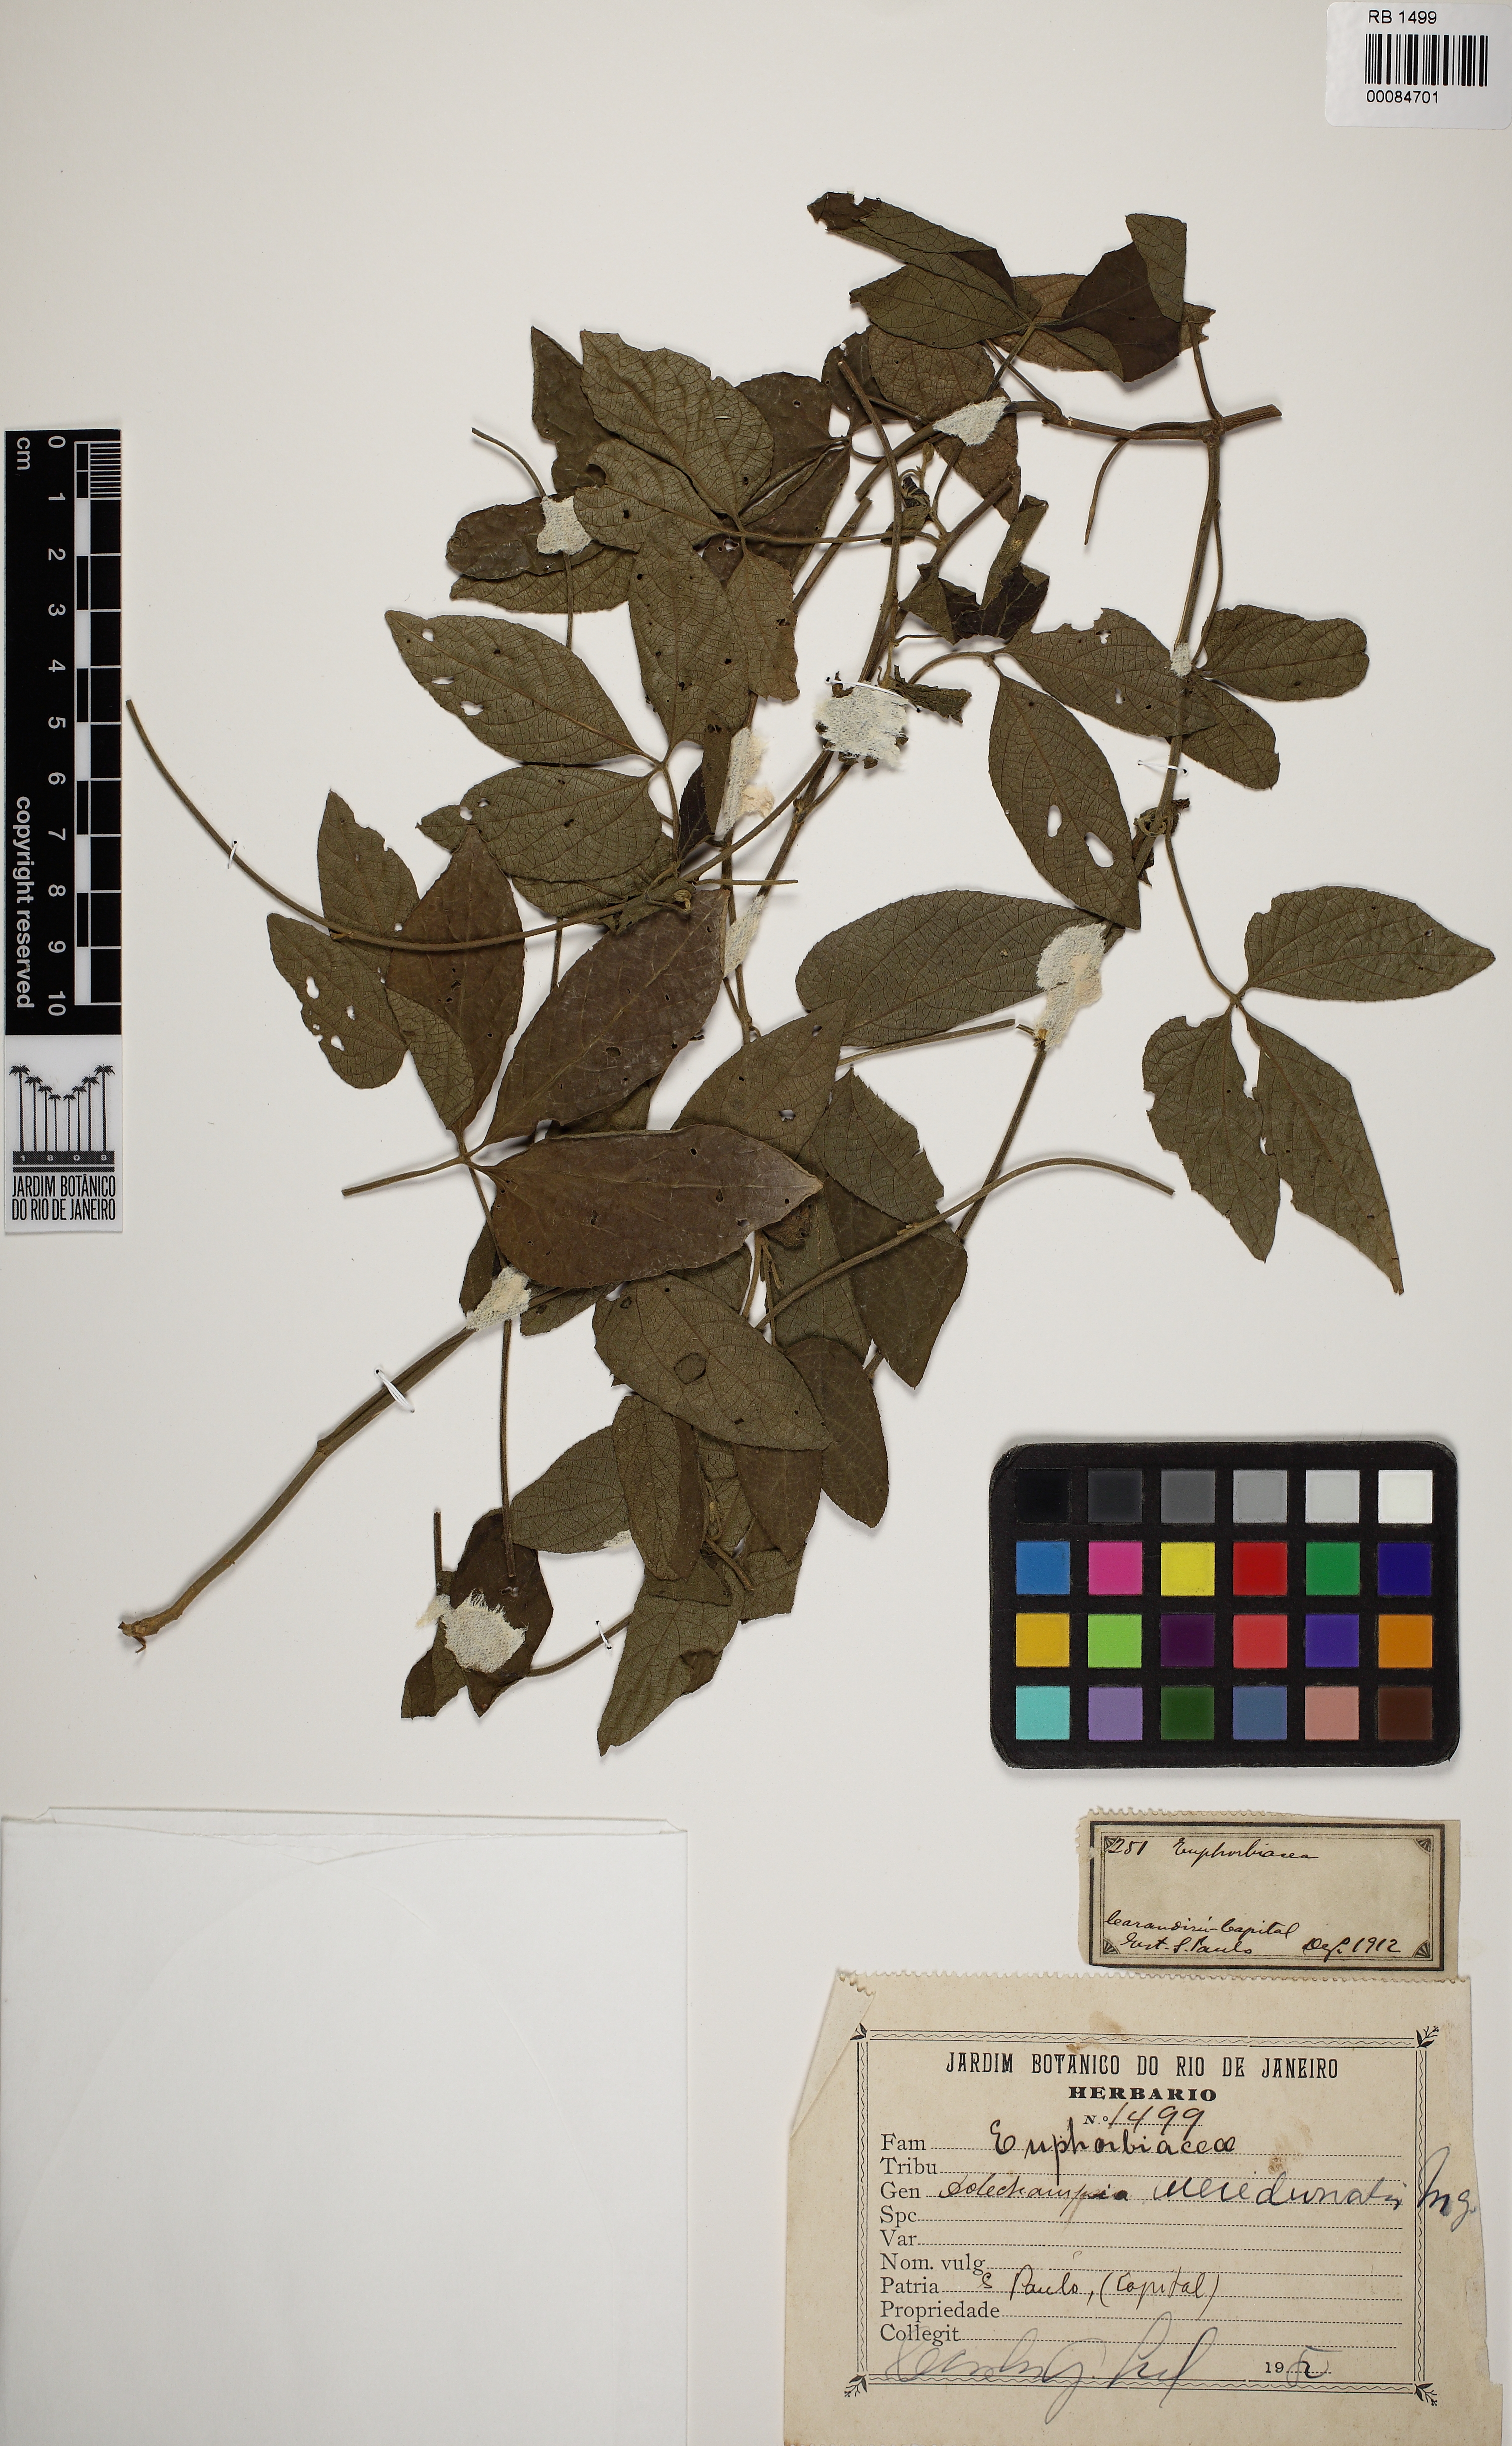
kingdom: Plantae
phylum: Tracheophyta
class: Magnoliopsida
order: Malpighiales
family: Euphorbiaceae
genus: Dalechampia
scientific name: Dalechampia meridionalis
